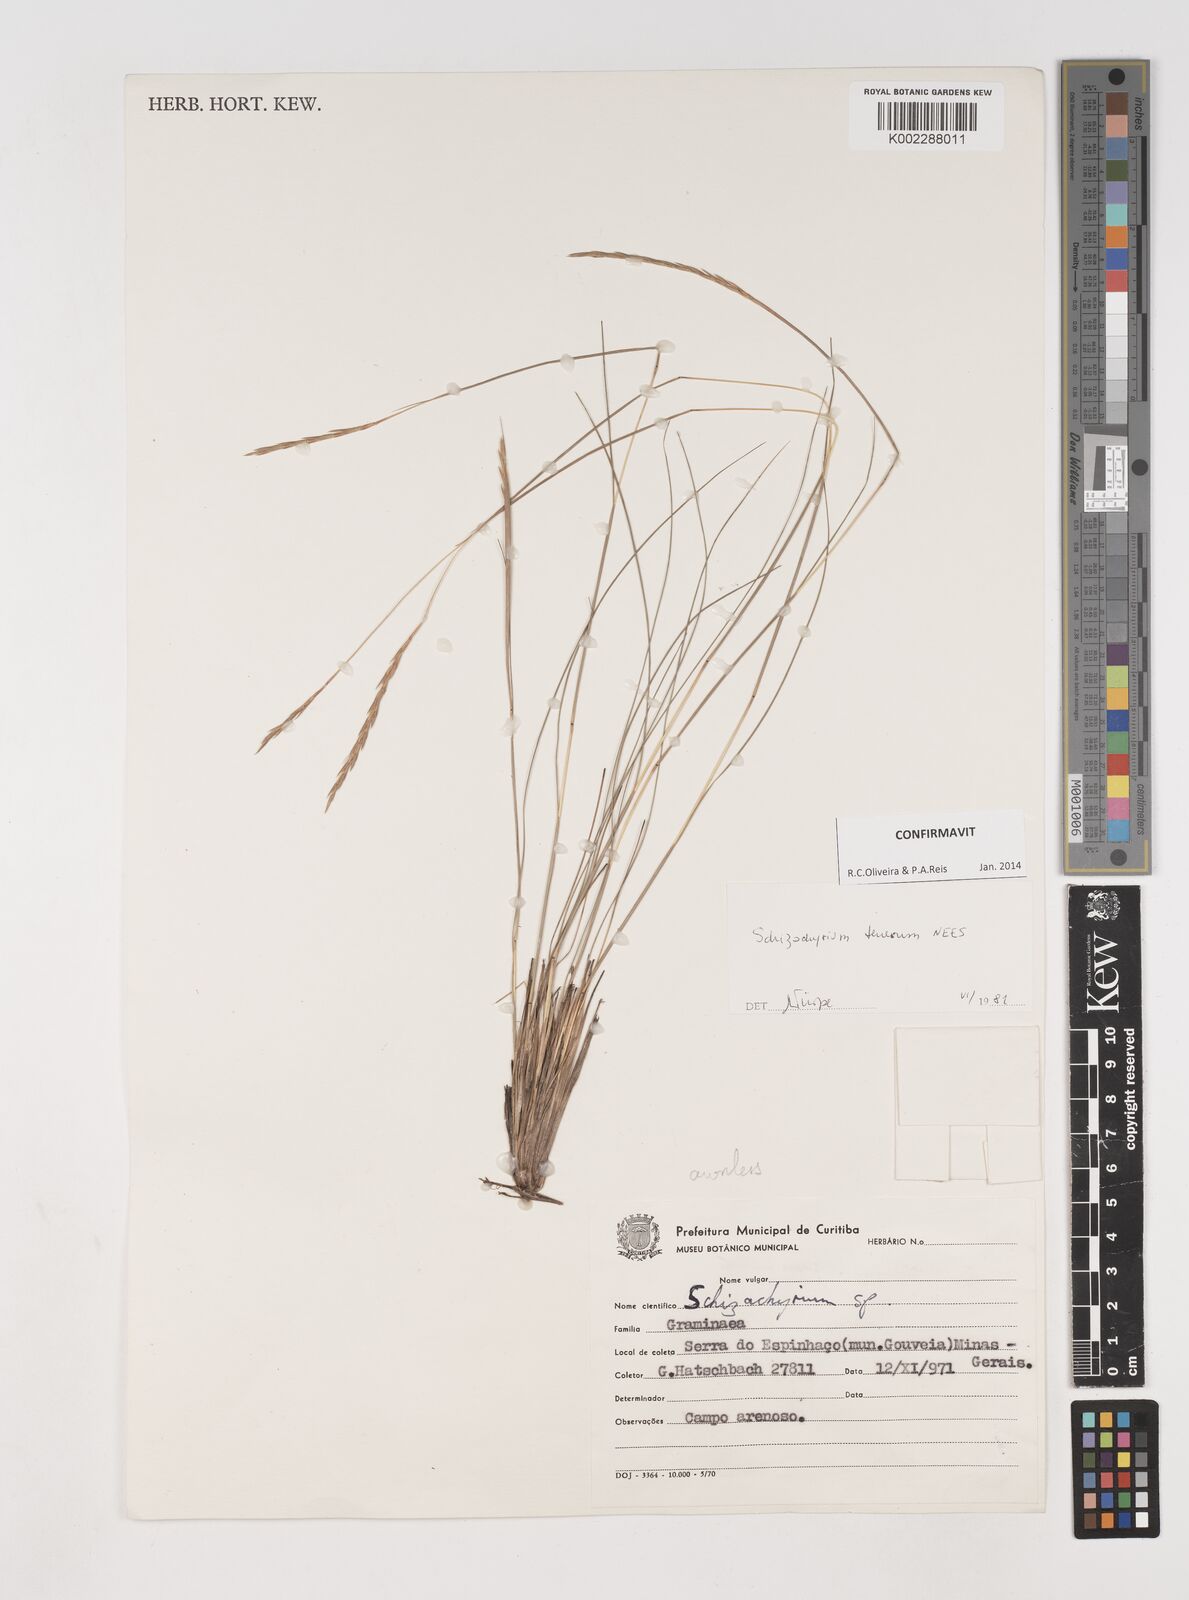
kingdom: Plantae
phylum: Tracheophyta
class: Liliopsida
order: Poales
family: Poaceae
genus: Andropogon
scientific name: Andropogon tener
